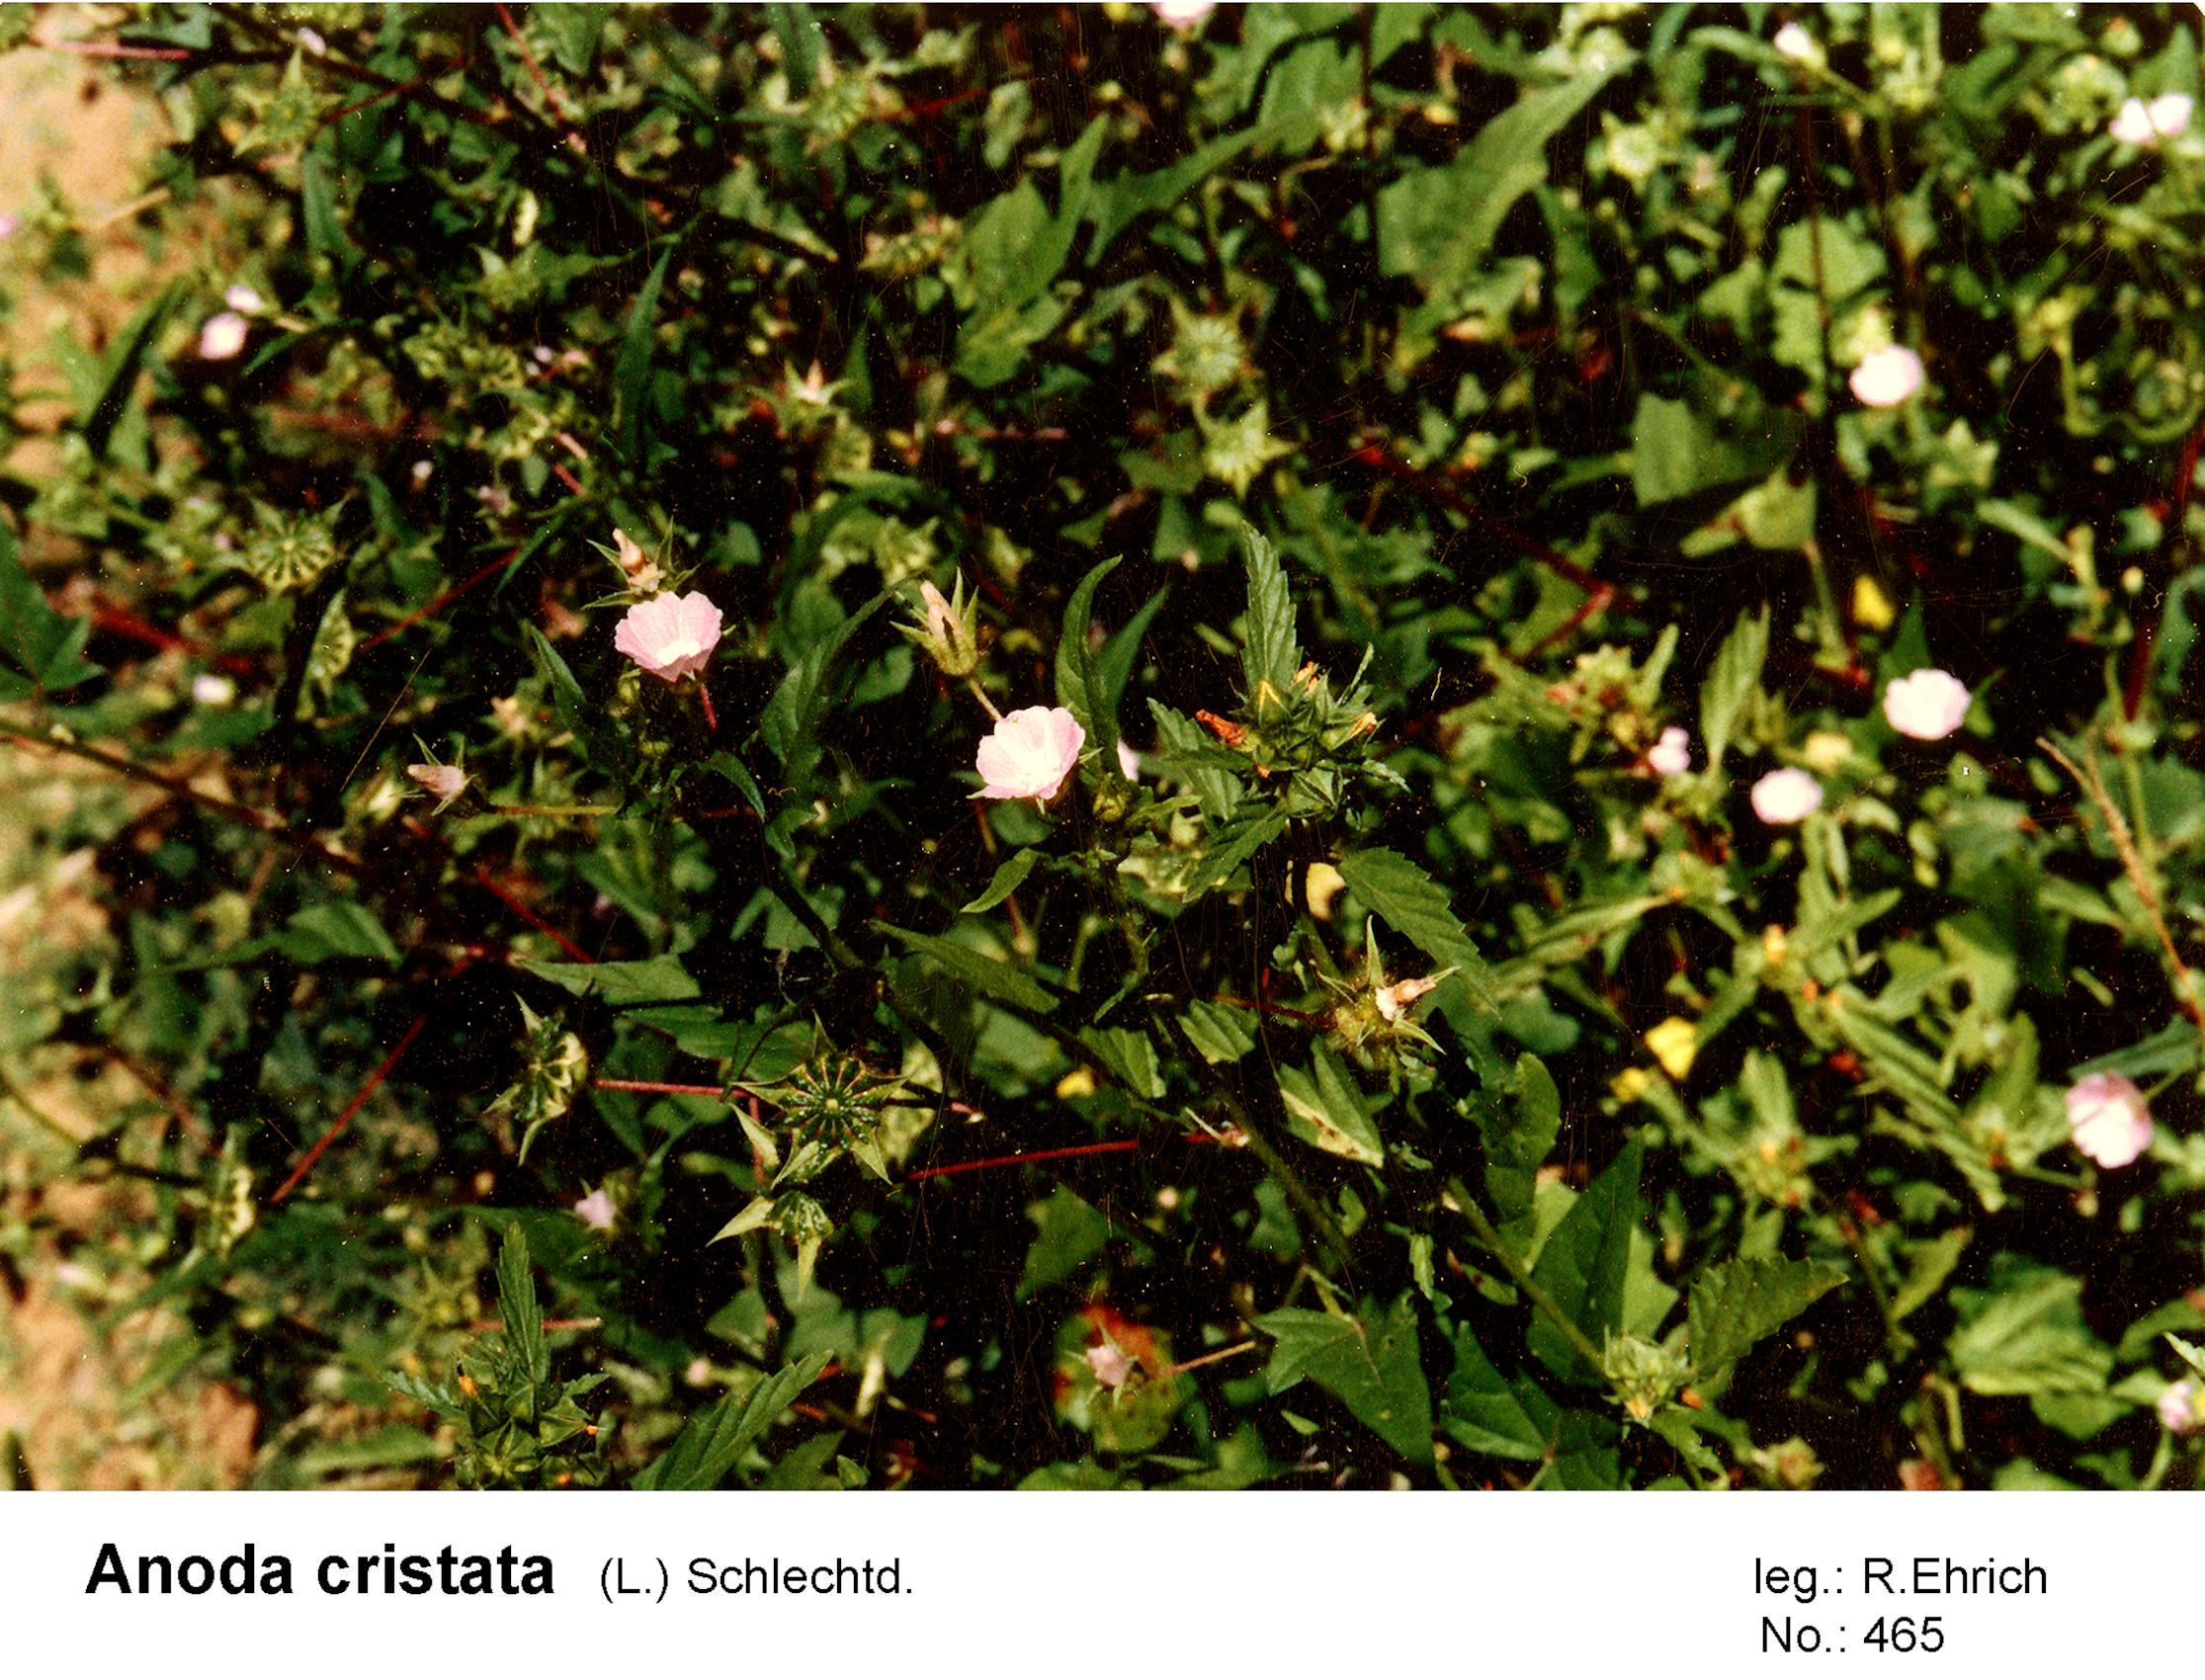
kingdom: Plantae
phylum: Tracheophyta
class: Magnoliopsida
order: Malvales
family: Malvaceae
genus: Anoda
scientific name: Anoda cristata
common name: Spurred anoda
